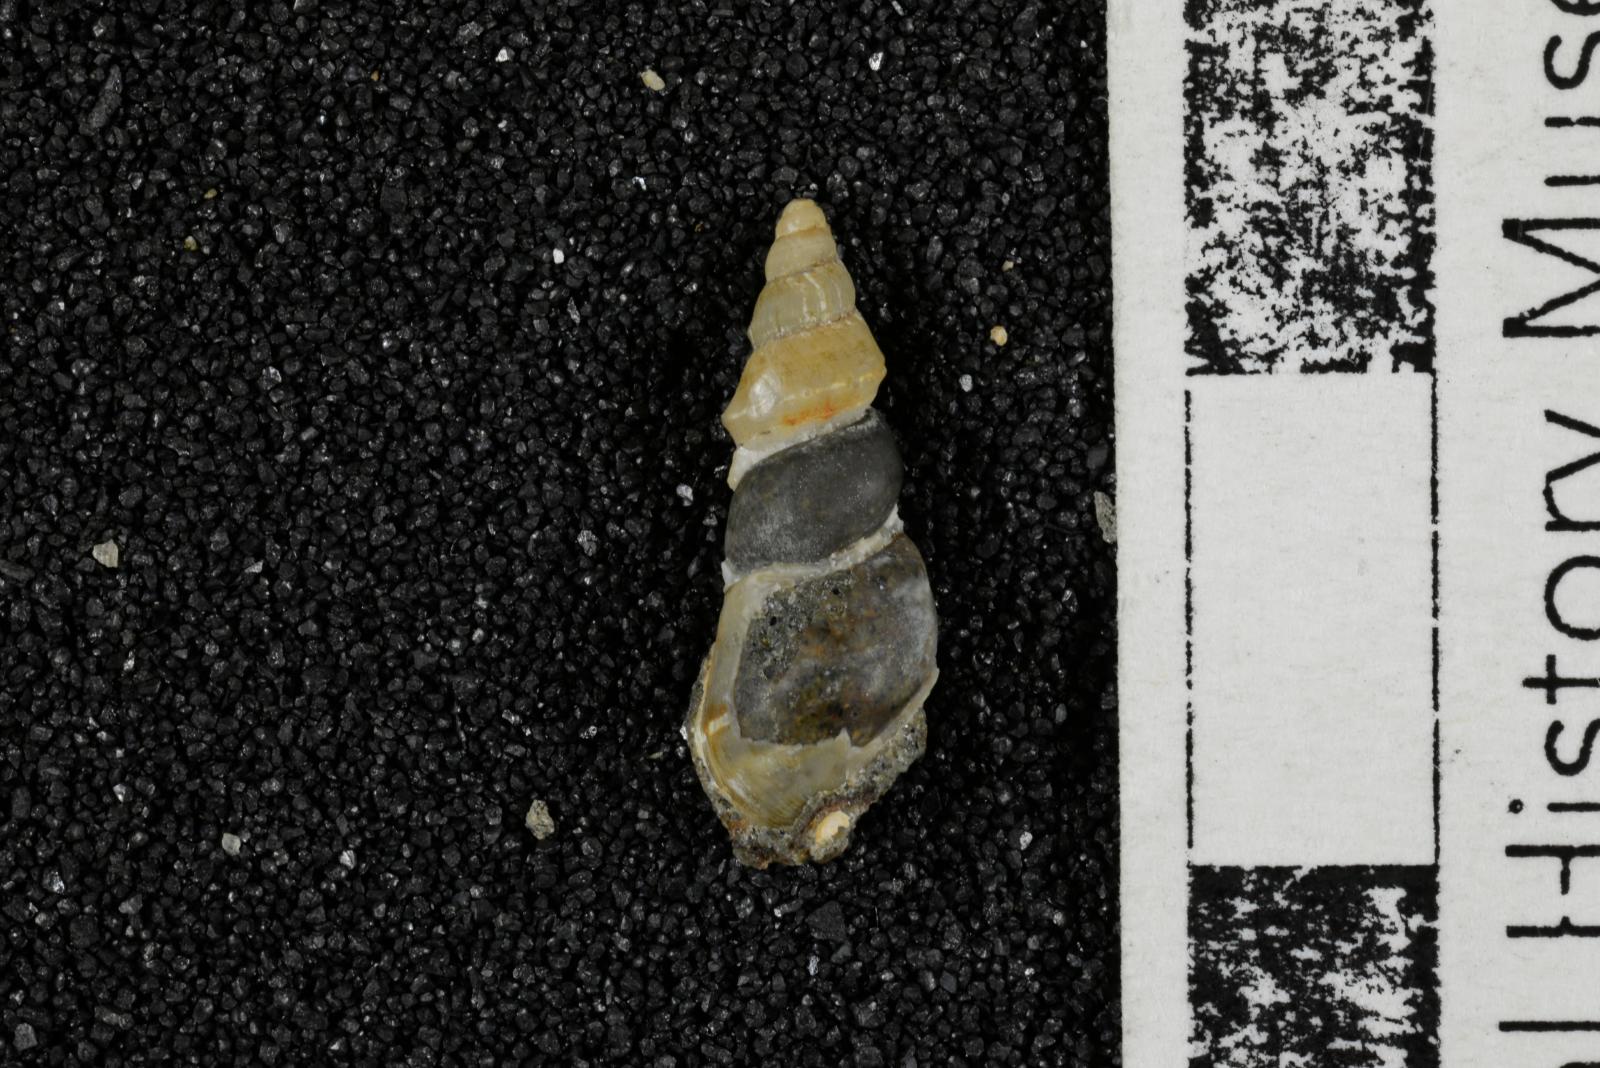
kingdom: Animalia
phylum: Mollusca
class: Bivalvia
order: Myida
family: Corbulidae
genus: Excorbula
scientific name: Excorbula shastana
